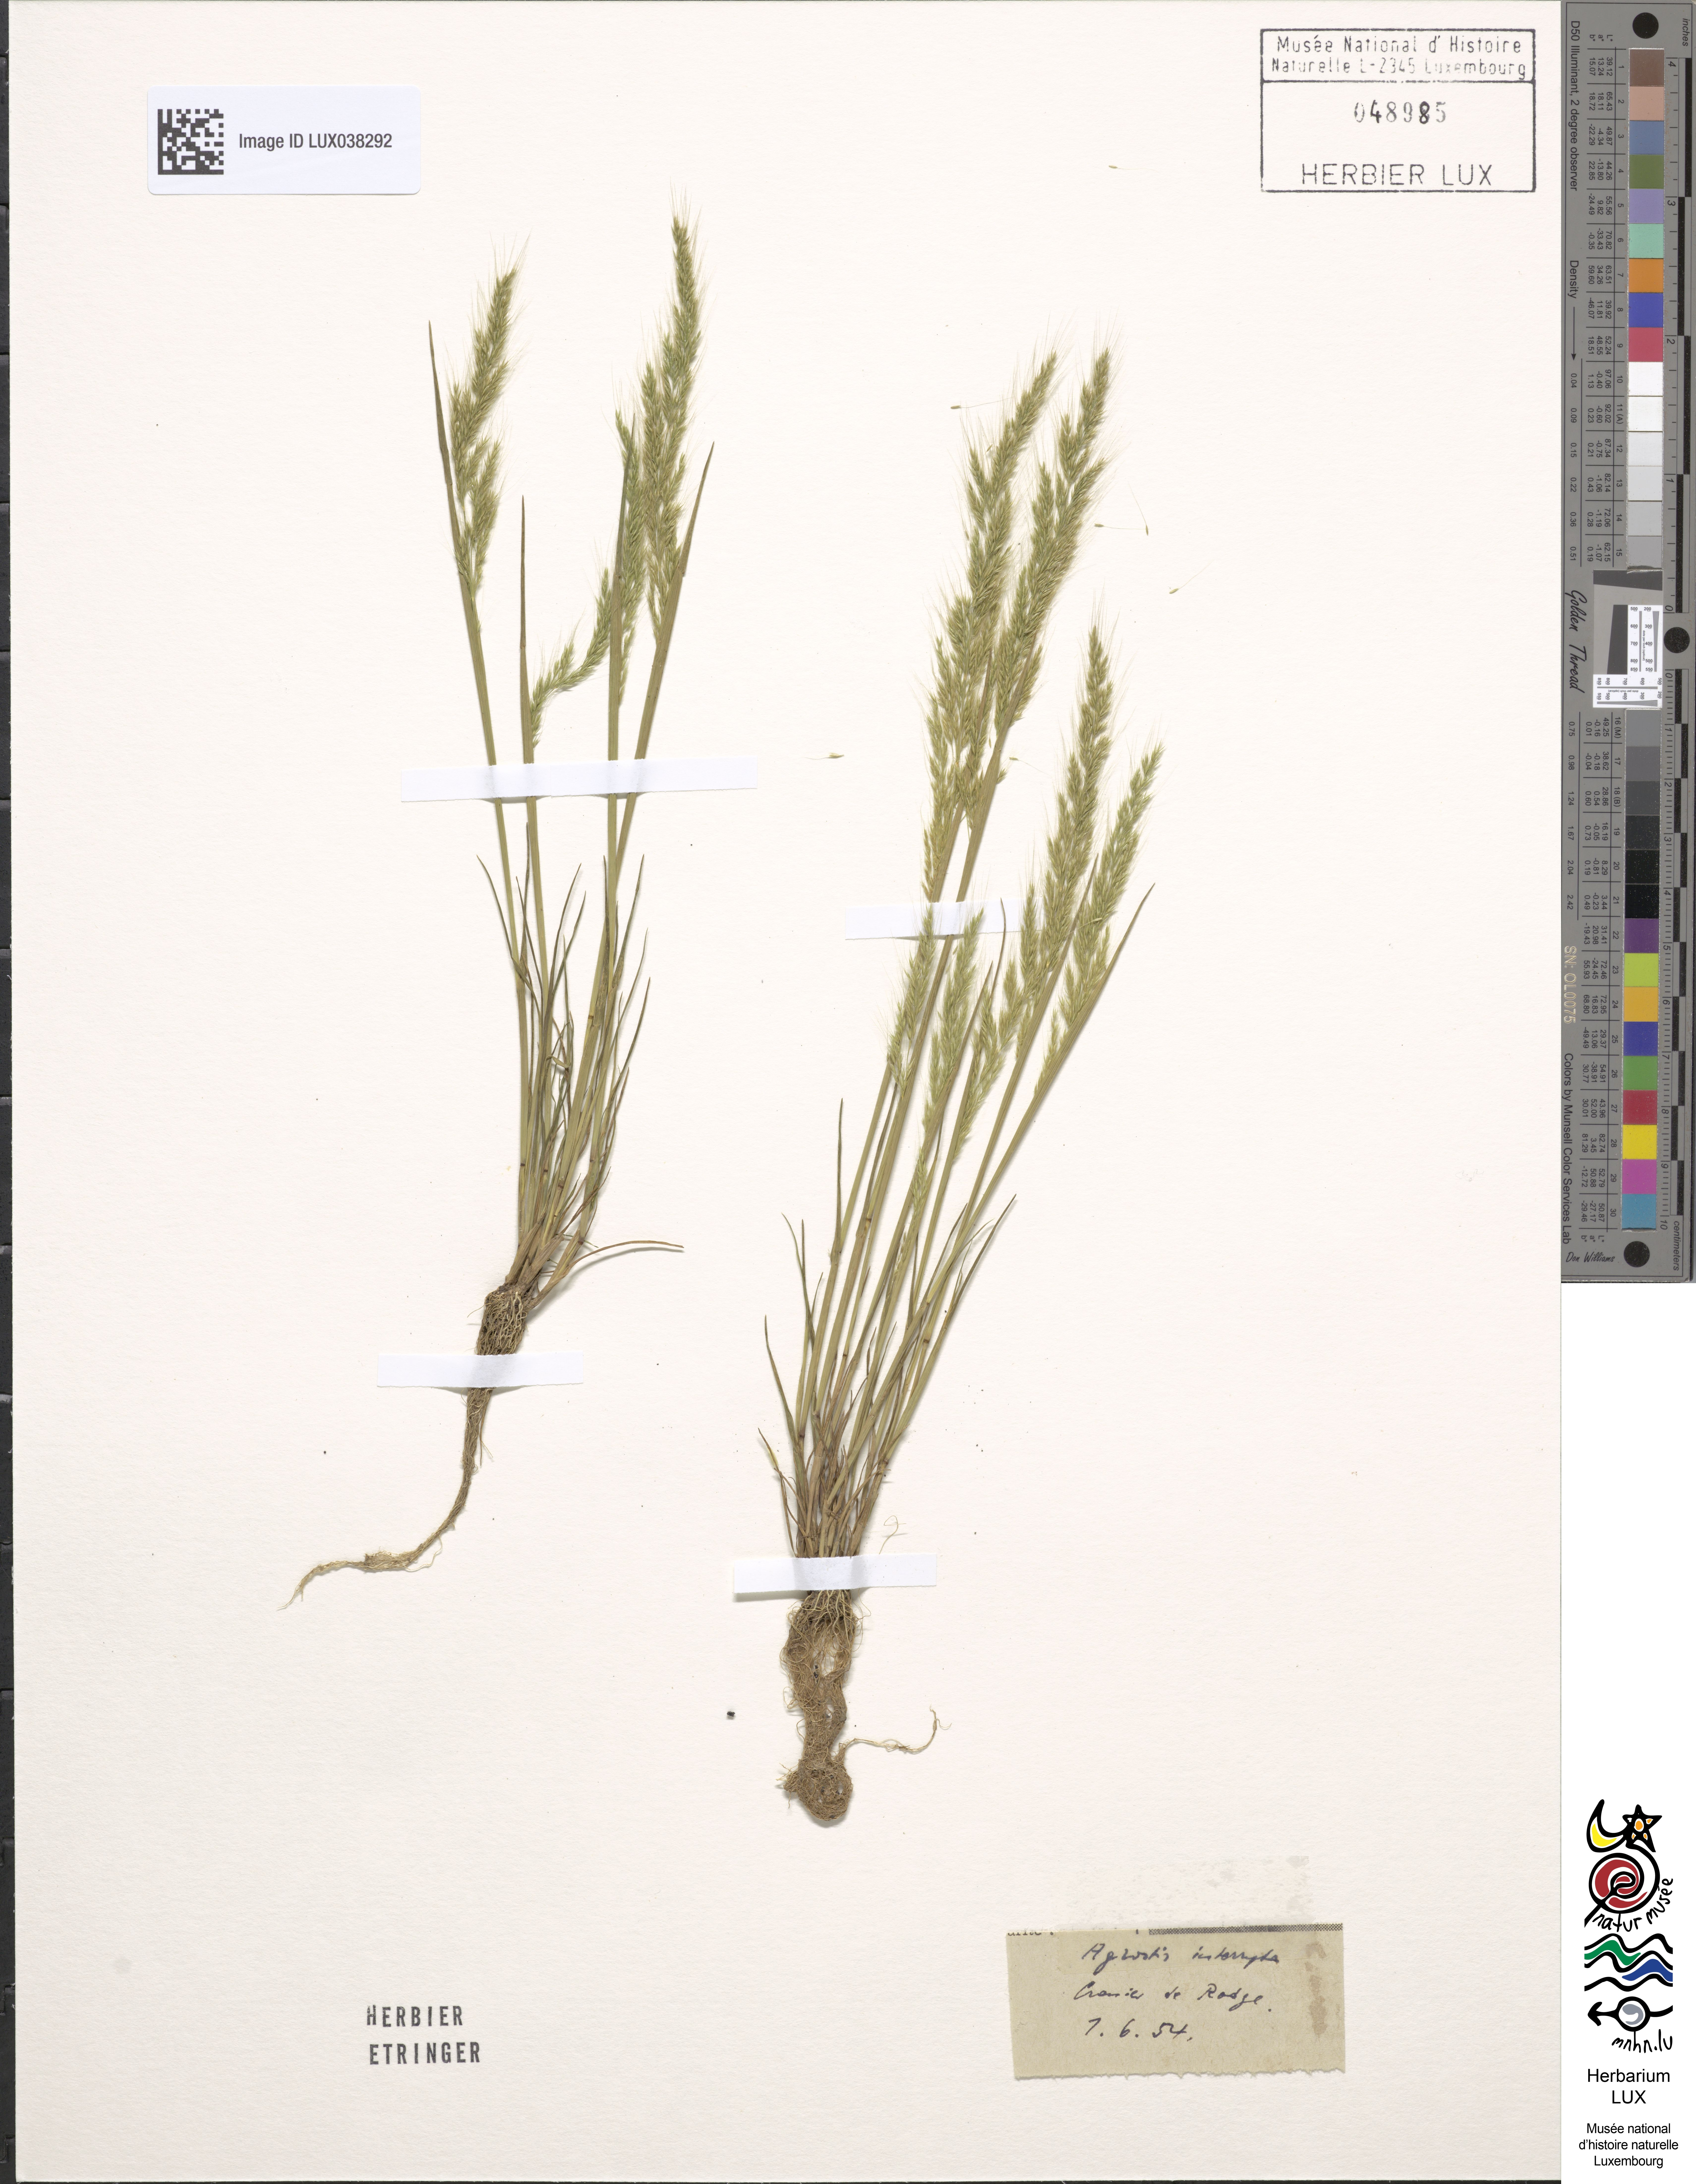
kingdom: Plantae
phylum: Tracheophyta
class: Liliopsida
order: Poales
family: Poaceae
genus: Apera
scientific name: Apera interrupta
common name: Dense silky-bent
